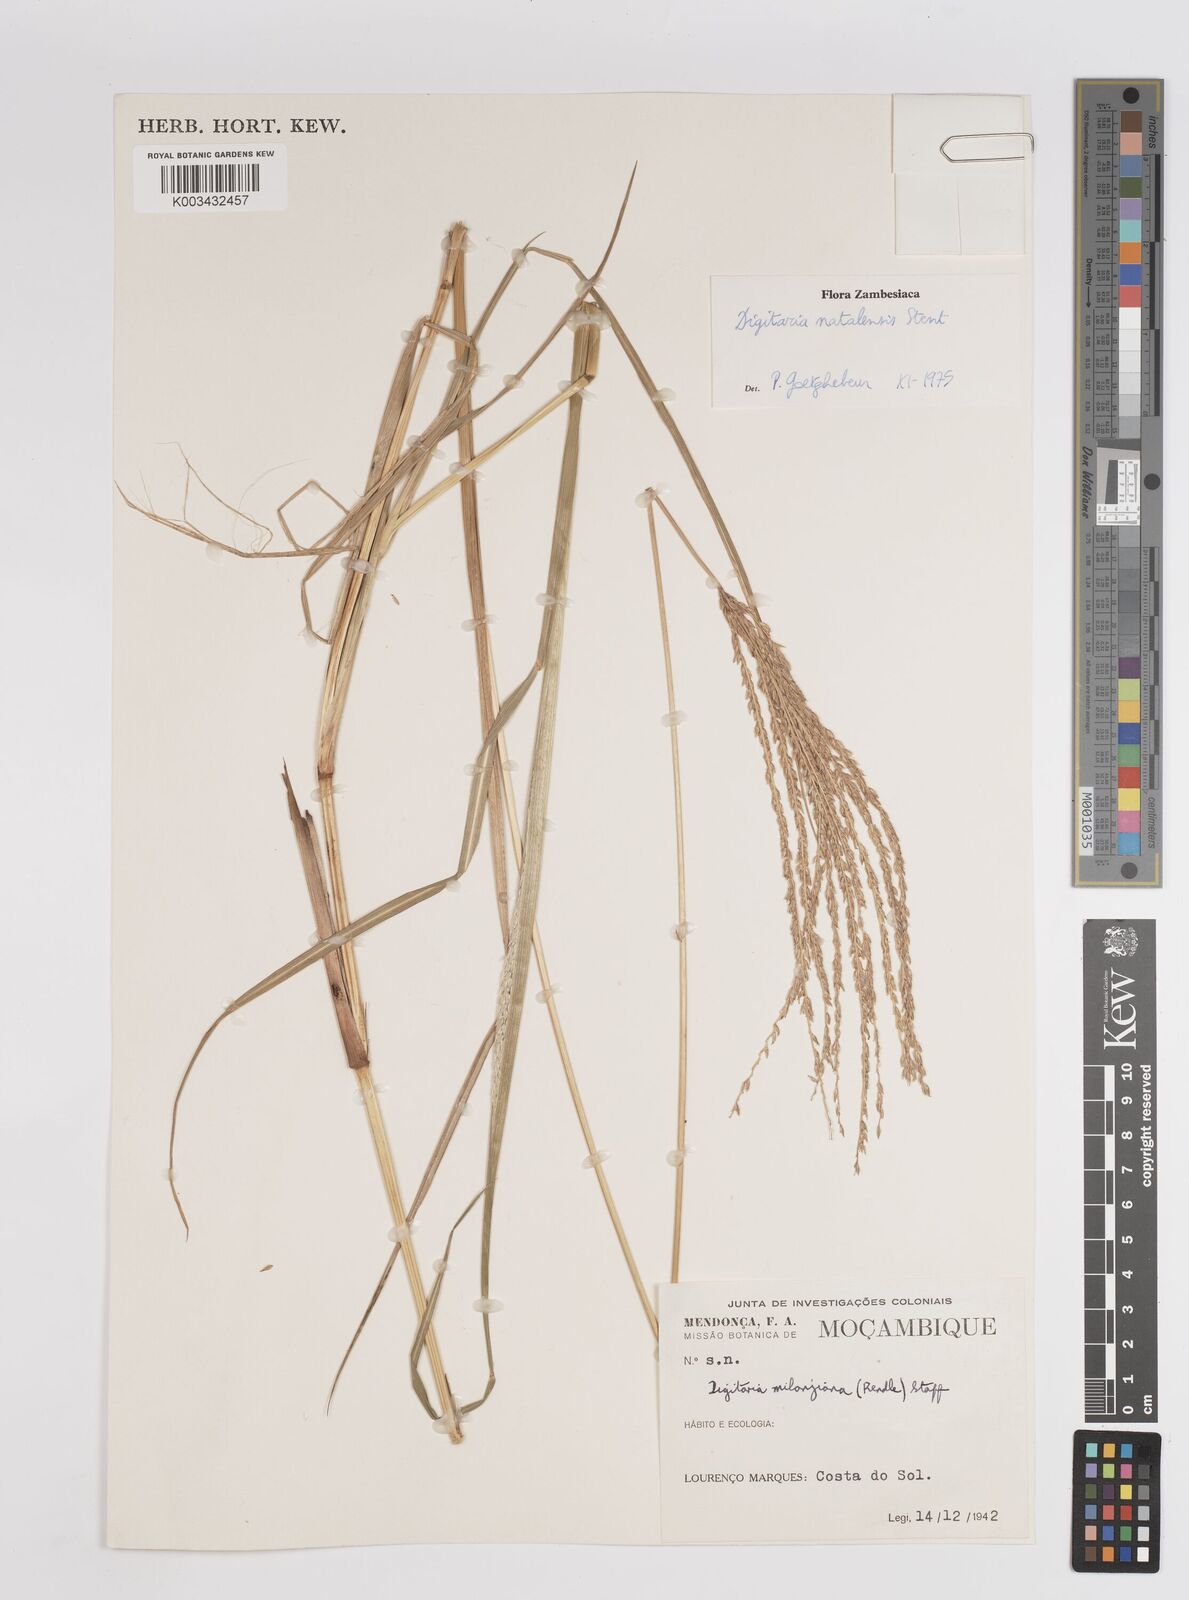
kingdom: Plantae
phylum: Tracheophyta
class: Liliopsida
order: Poales
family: Poaceae
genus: Digitaria
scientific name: Digitaria natalensis
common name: Coast finger grass
